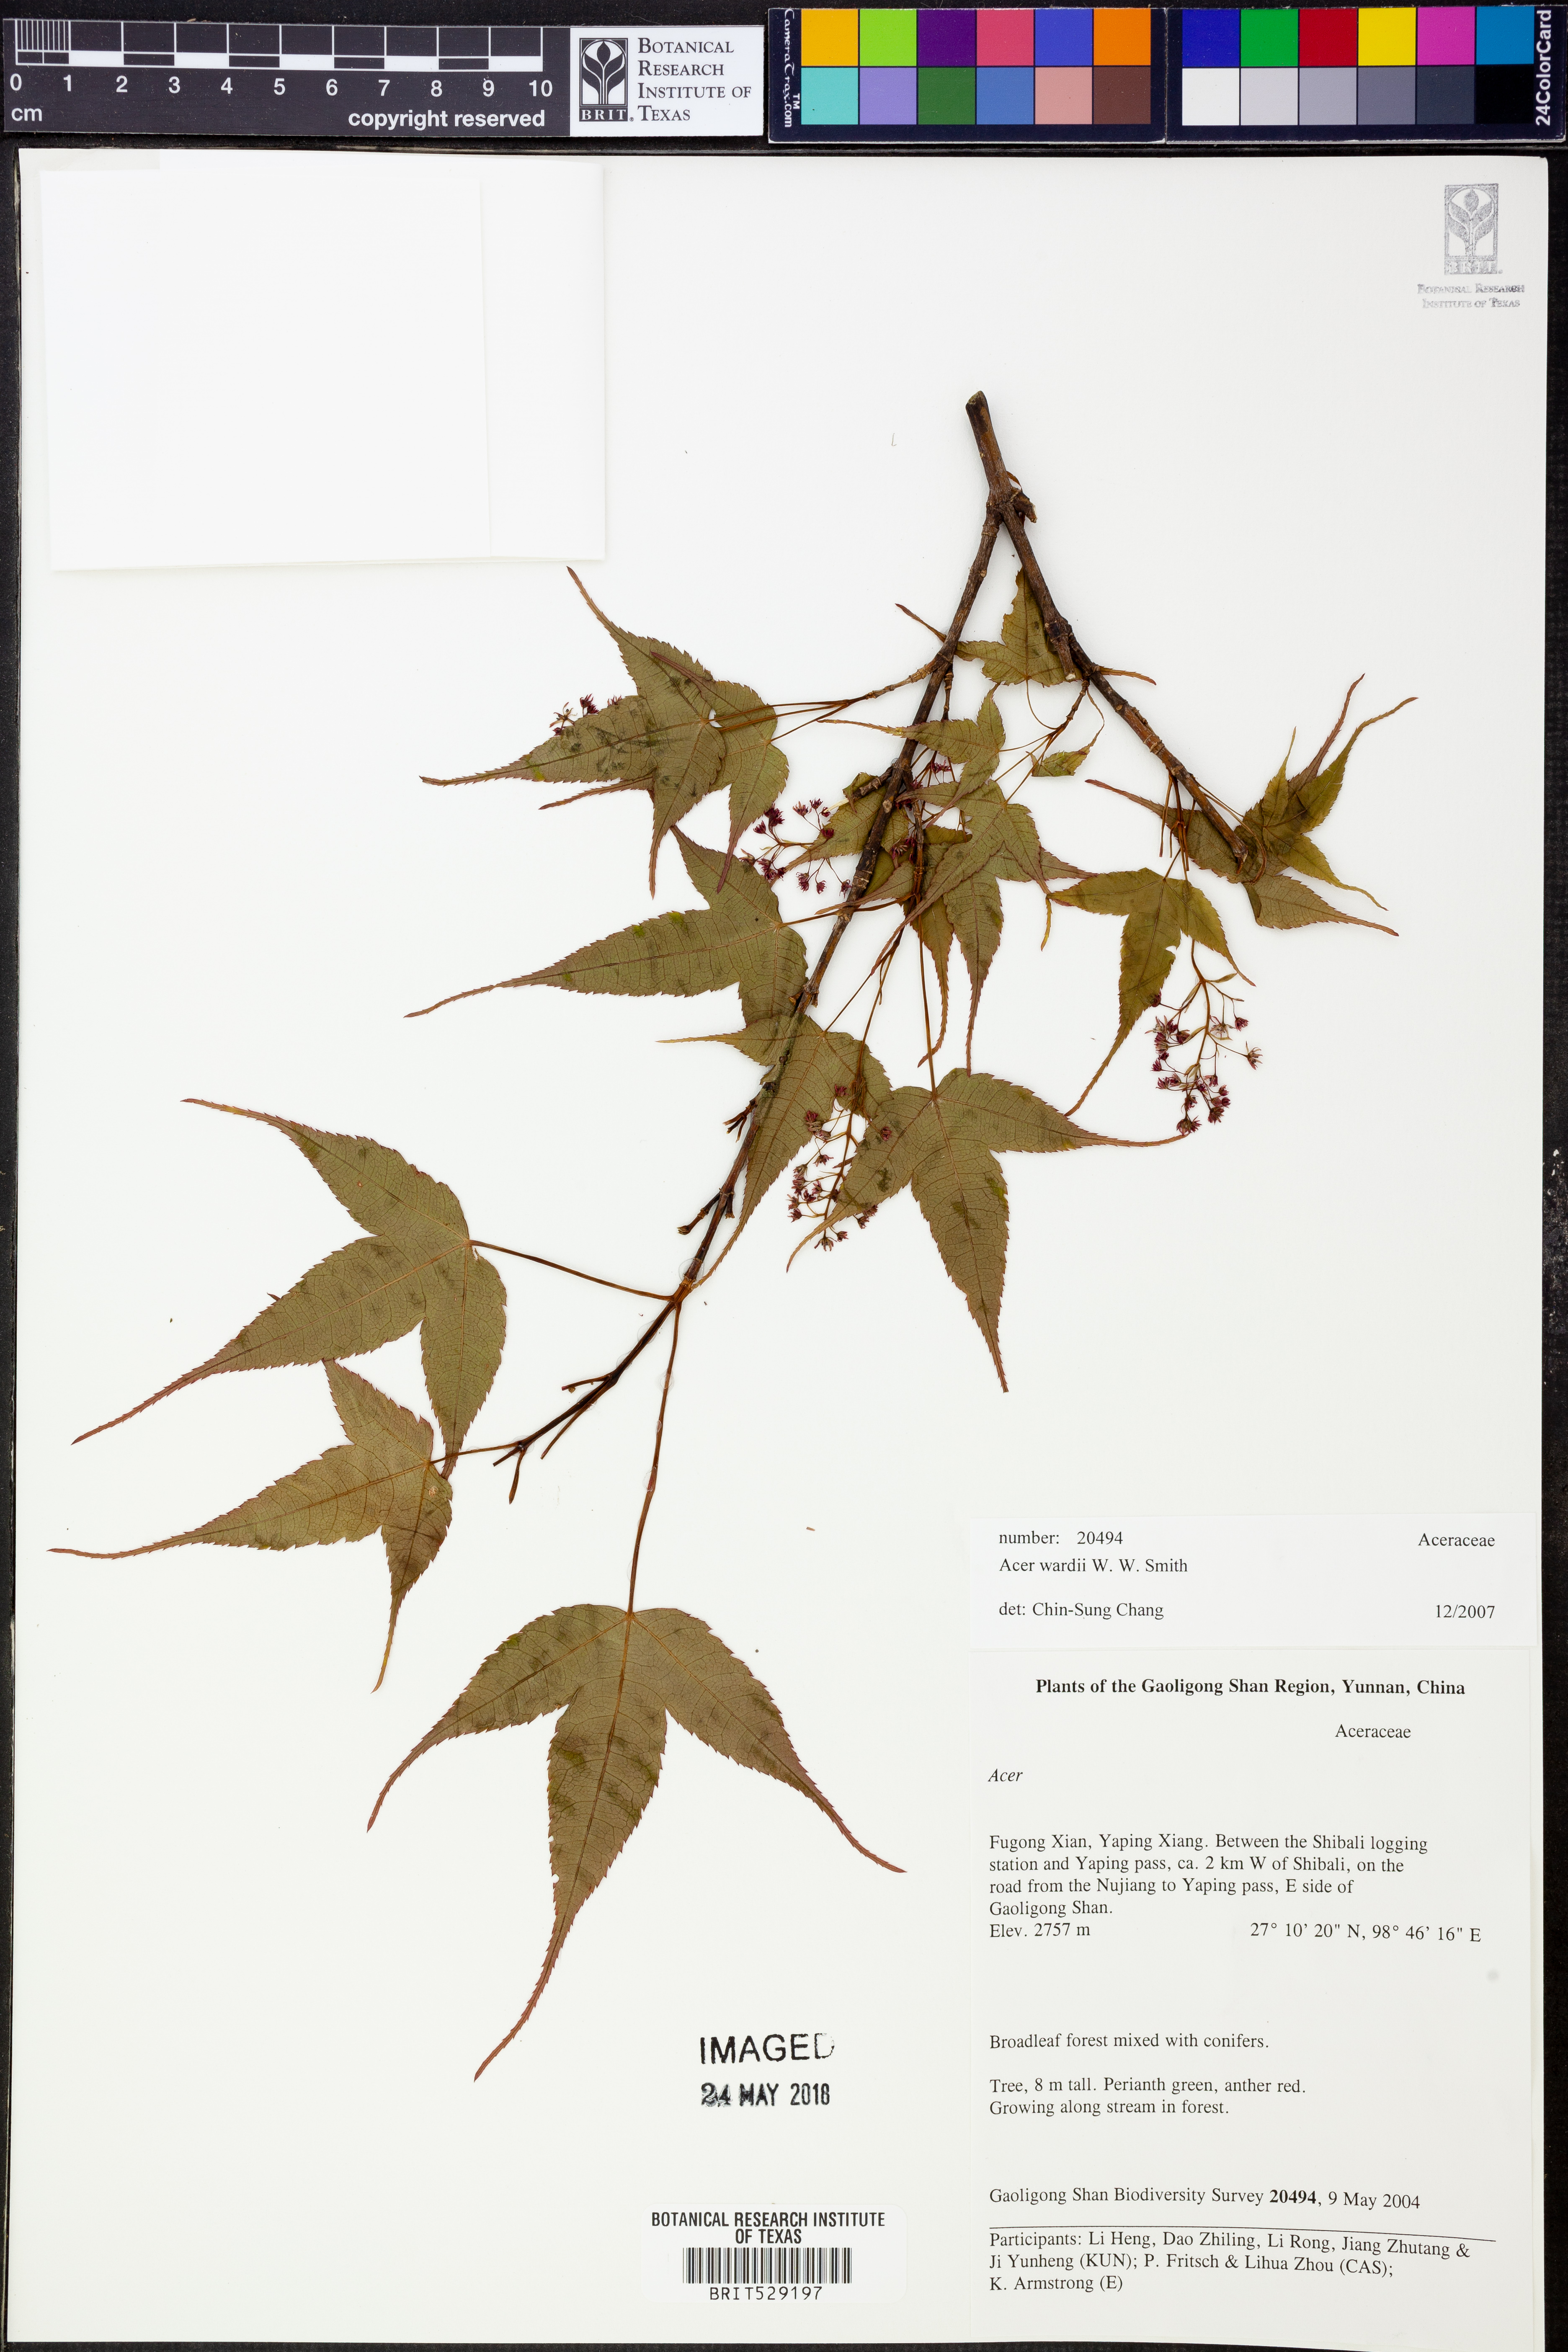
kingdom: Plantae
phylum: Tracheophyta
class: Magnoliopsida
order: Sapindales
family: Sapindaceae
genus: Acer
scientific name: Acer wardii
